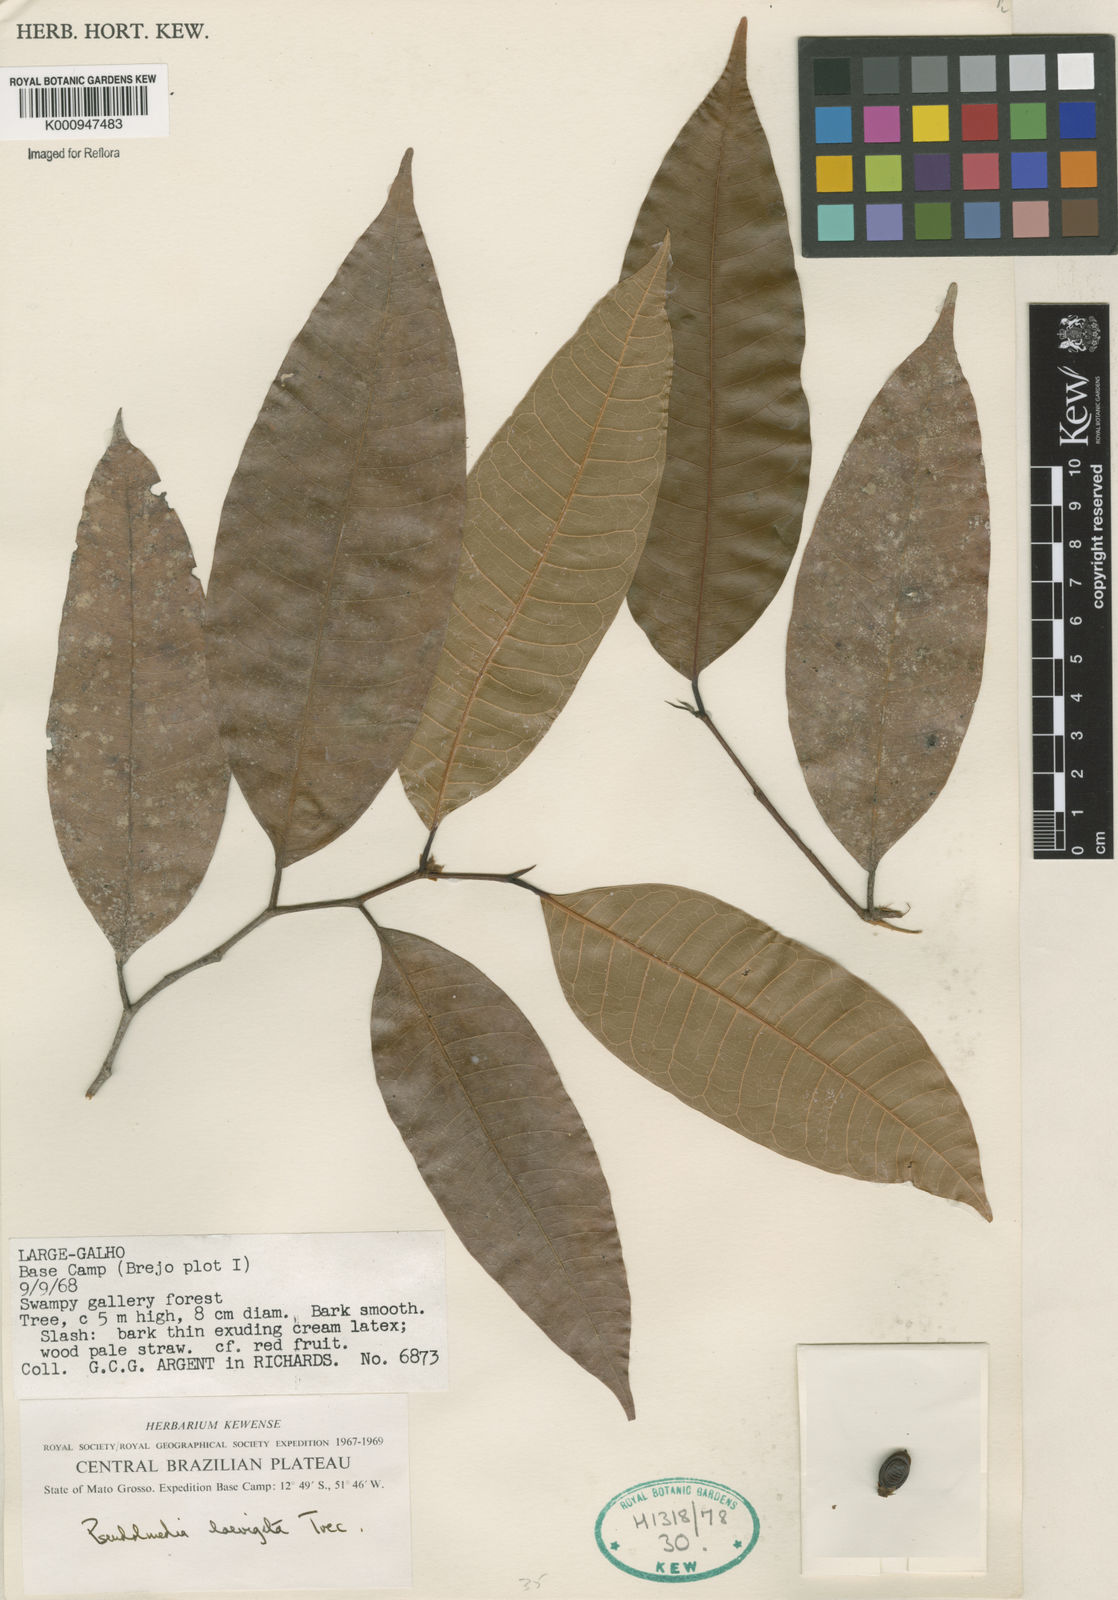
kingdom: Plantae
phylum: Tracheophyta
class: Magnoliopsida
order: Rosales
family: Moraceae
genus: Pseudolmedia
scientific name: Pseudolmedia
